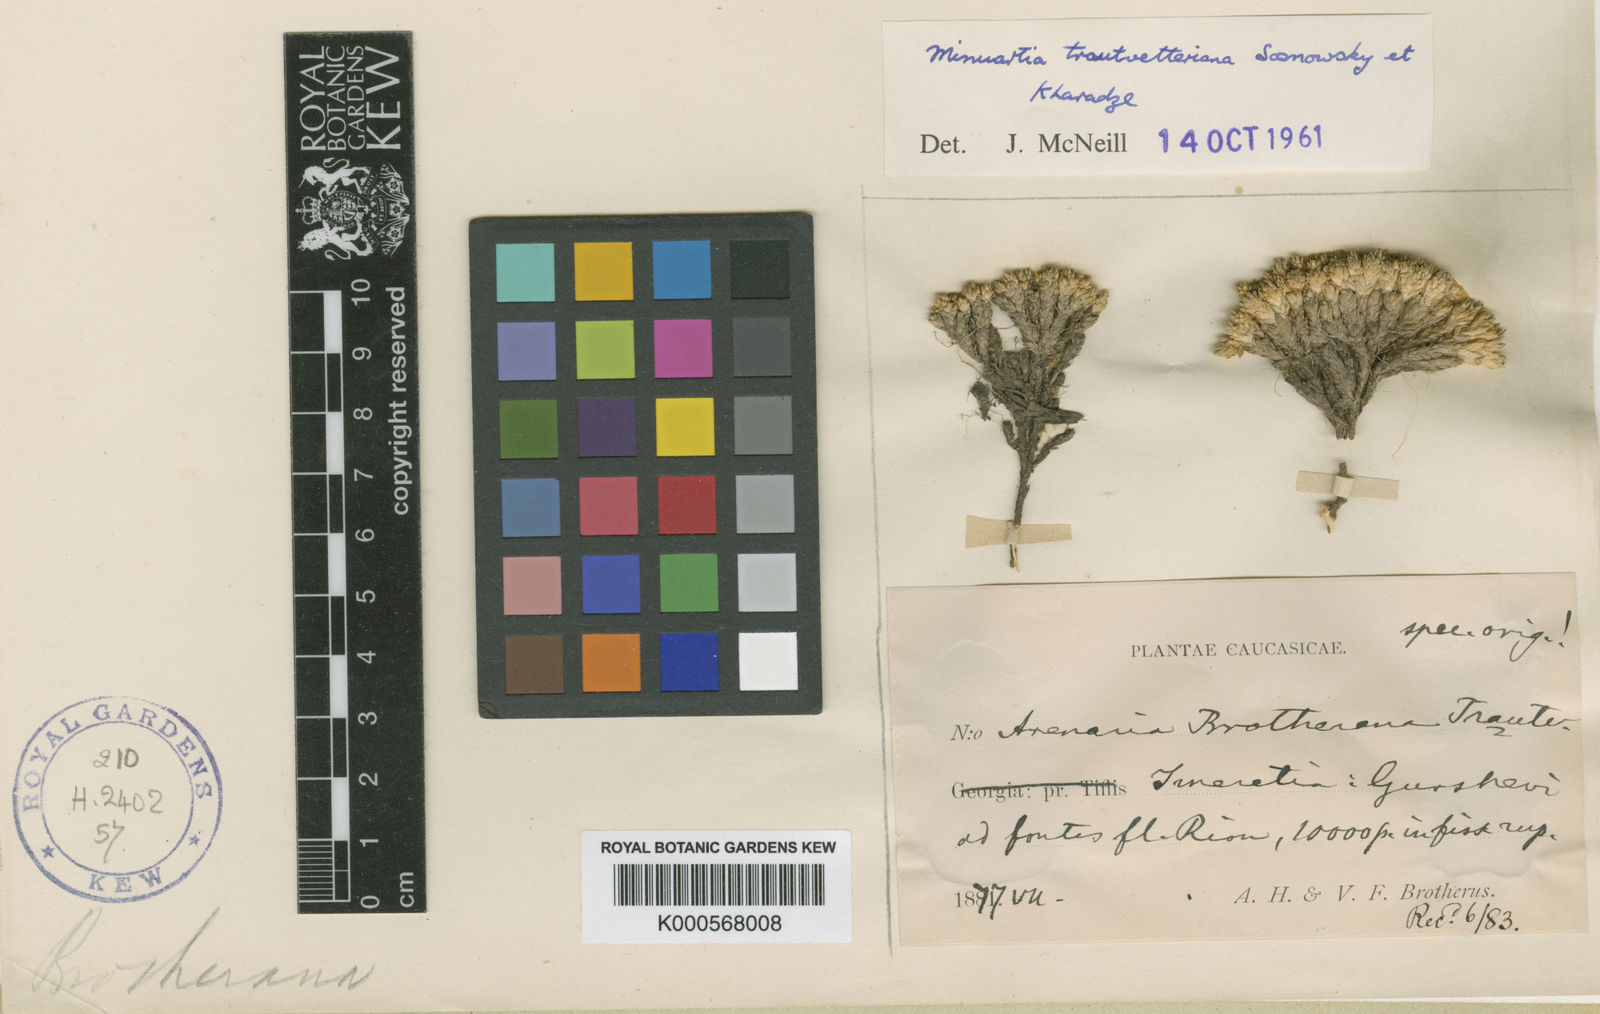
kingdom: Plantae
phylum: Tracheophyta
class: Magnoliopsida
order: Caryophyllales
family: Caryophyllaceae
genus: Pseudocherleria
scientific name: Pseudocherleria brotheriana
